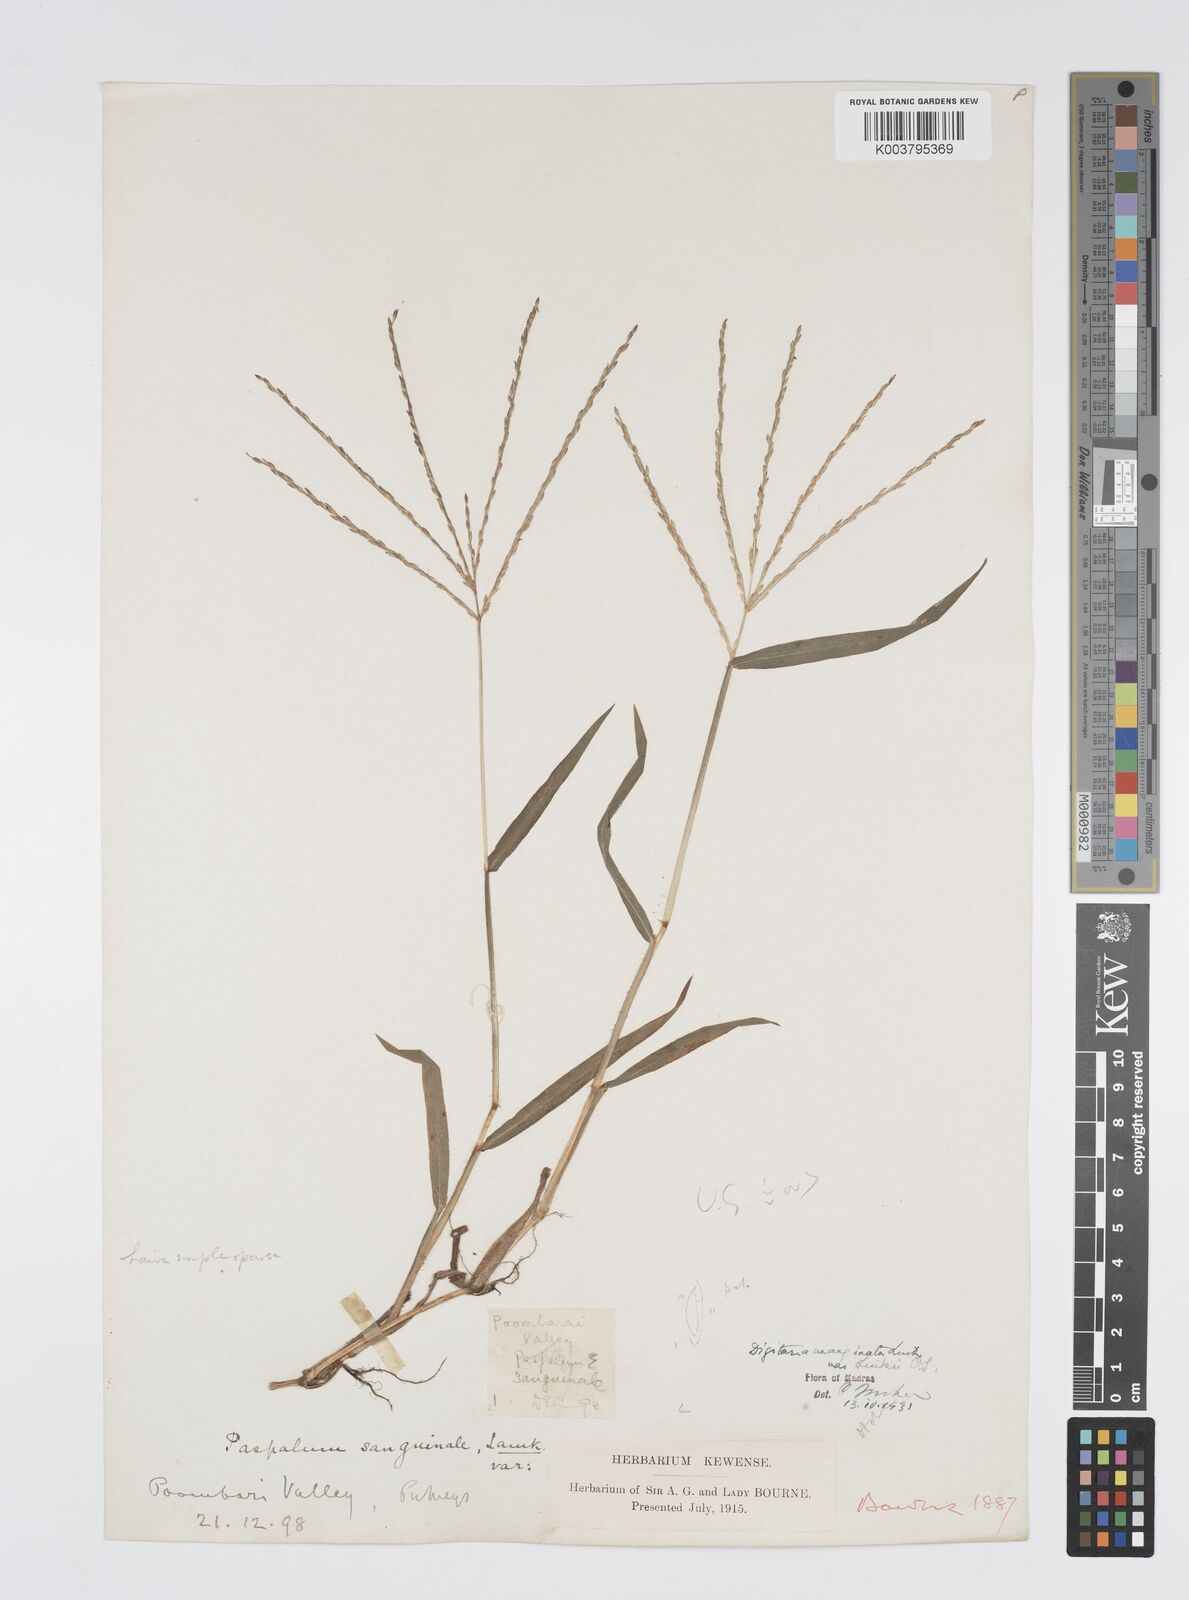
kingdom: Plantae
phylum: Tracheophyta
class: Liliopsida
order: Poales
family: Poaceae
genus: Digitaria
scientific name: Digitaria ciliaris
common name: Tropical finger-grass
